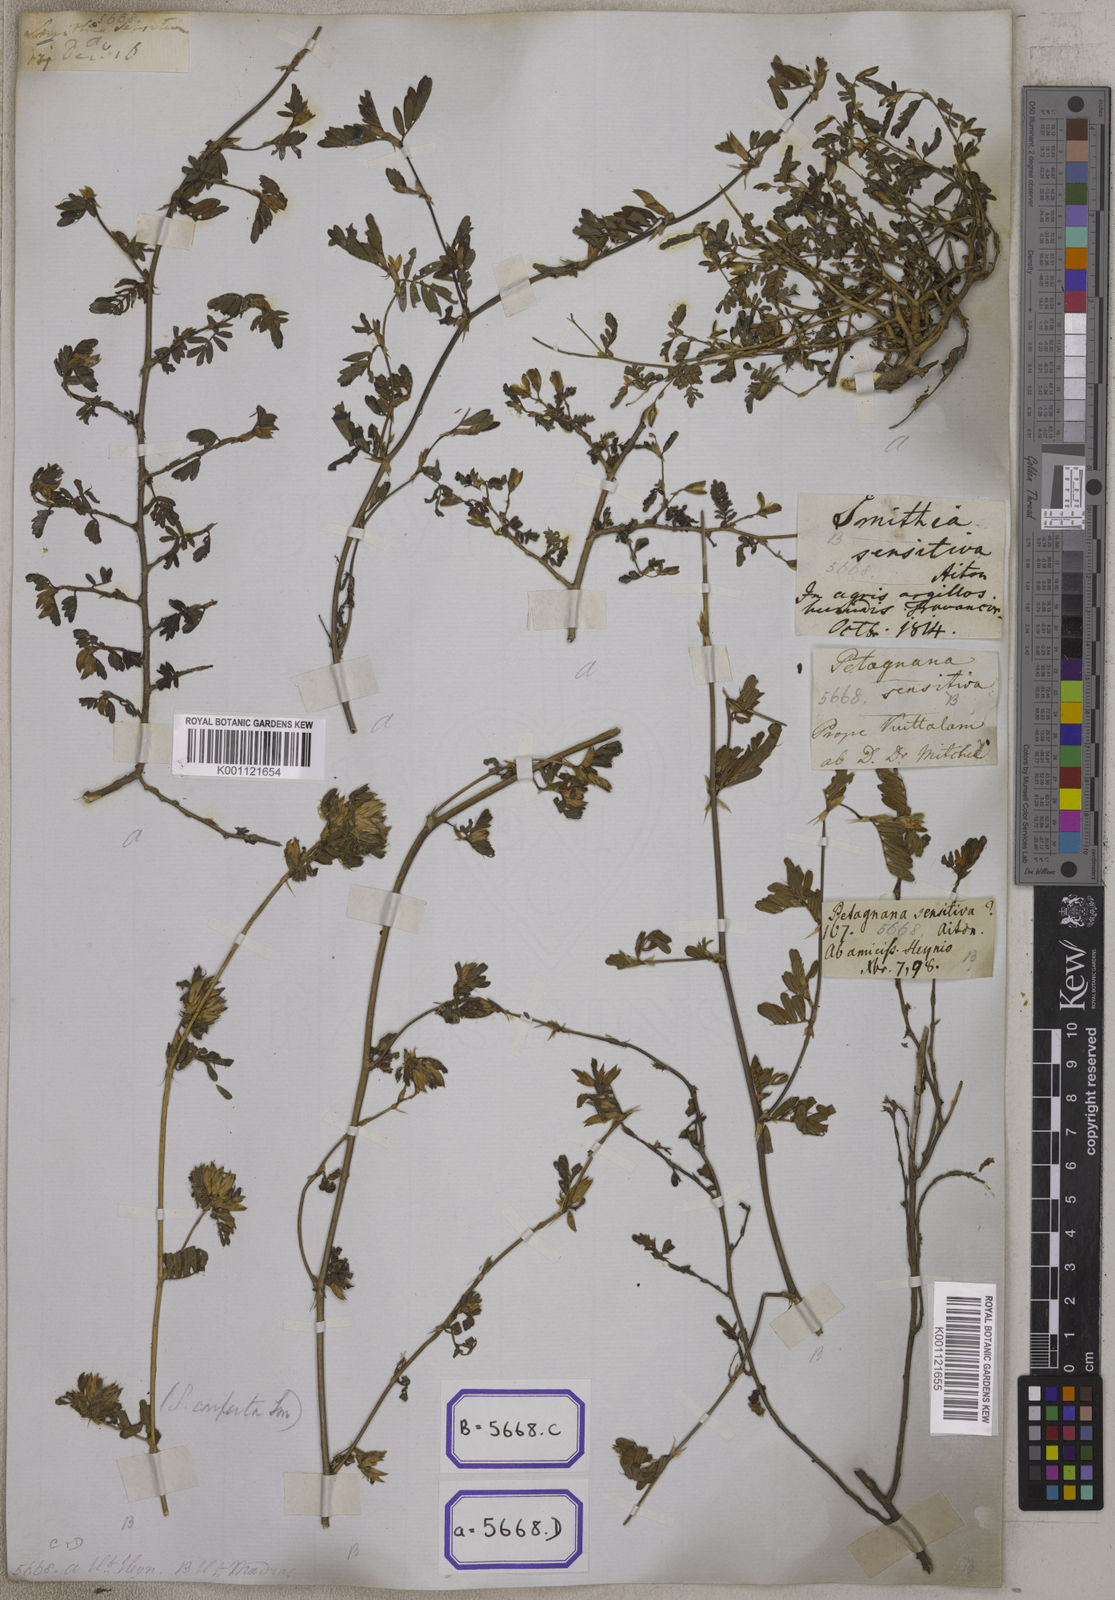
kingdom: Plantae
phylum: Tracheophyta
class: Magnoliopsida
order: Fabales
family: Fabaceae
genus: Smithia
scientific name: Smithia sensitiva
